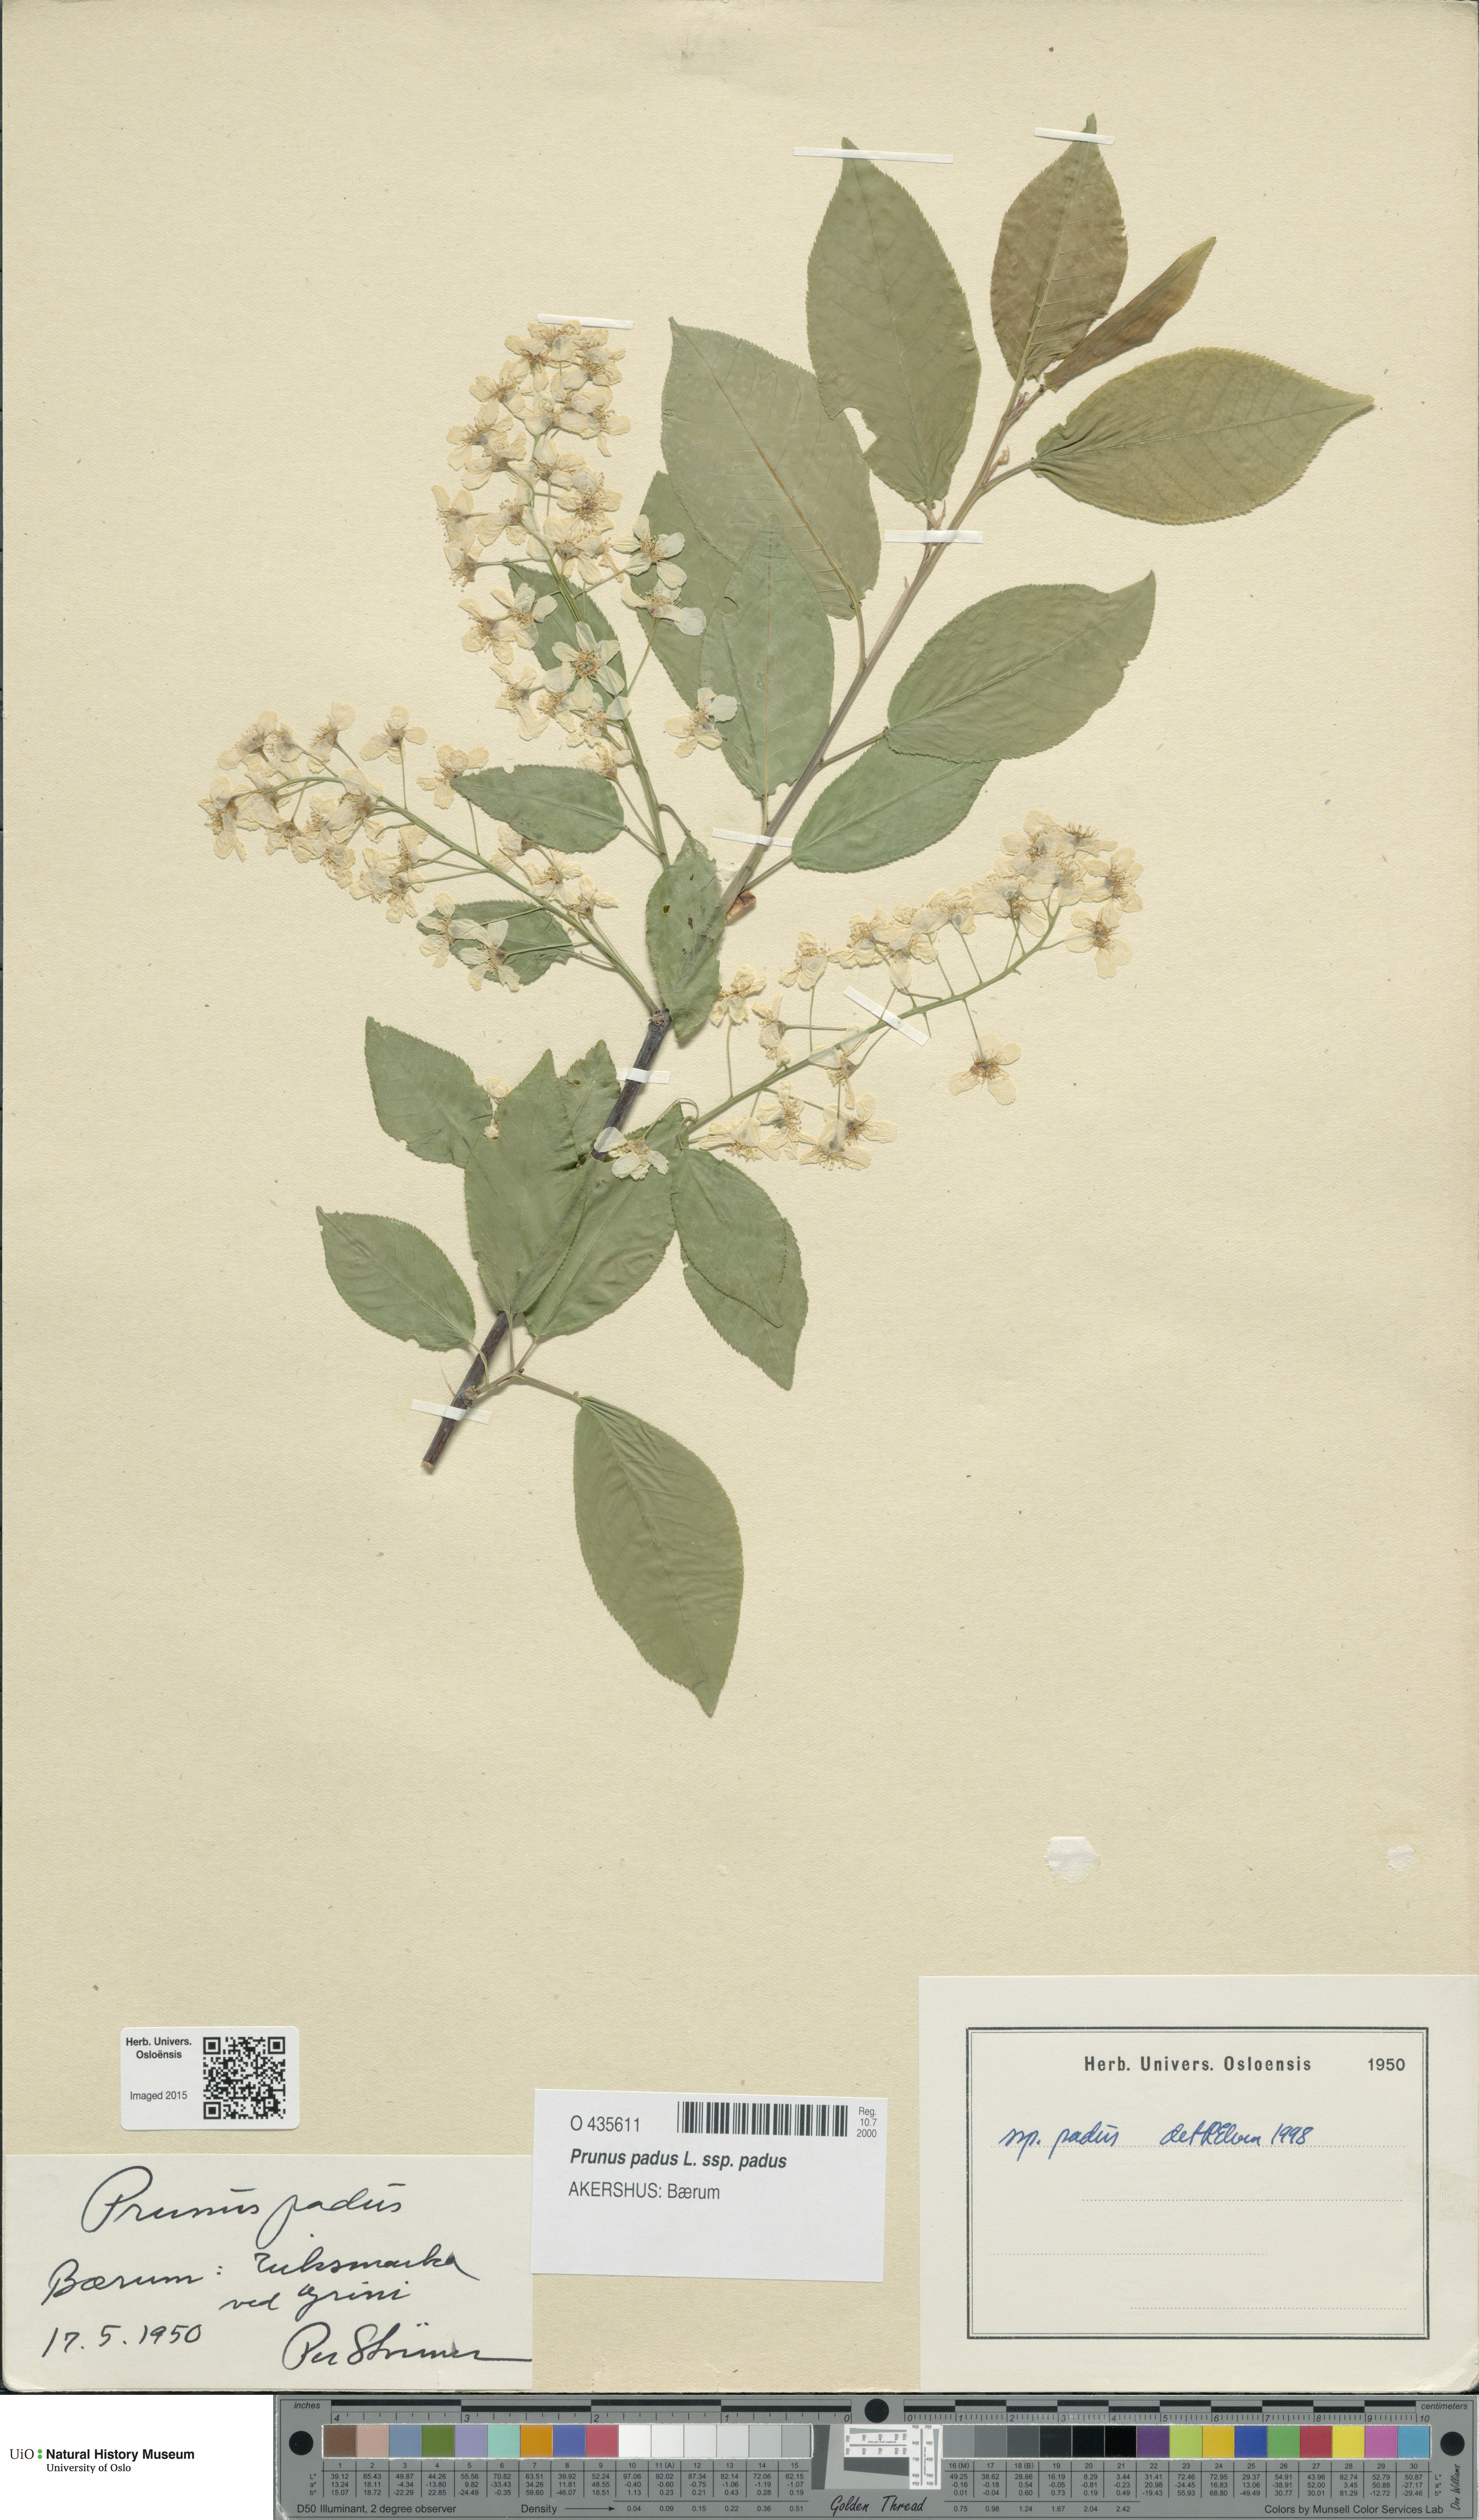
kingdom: Plantae
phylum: Tracheophyta
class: Magnoliopsida
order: Rosales
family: Rosaceae
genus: Prunus
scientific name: Prunus padus
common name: Bird cherry
